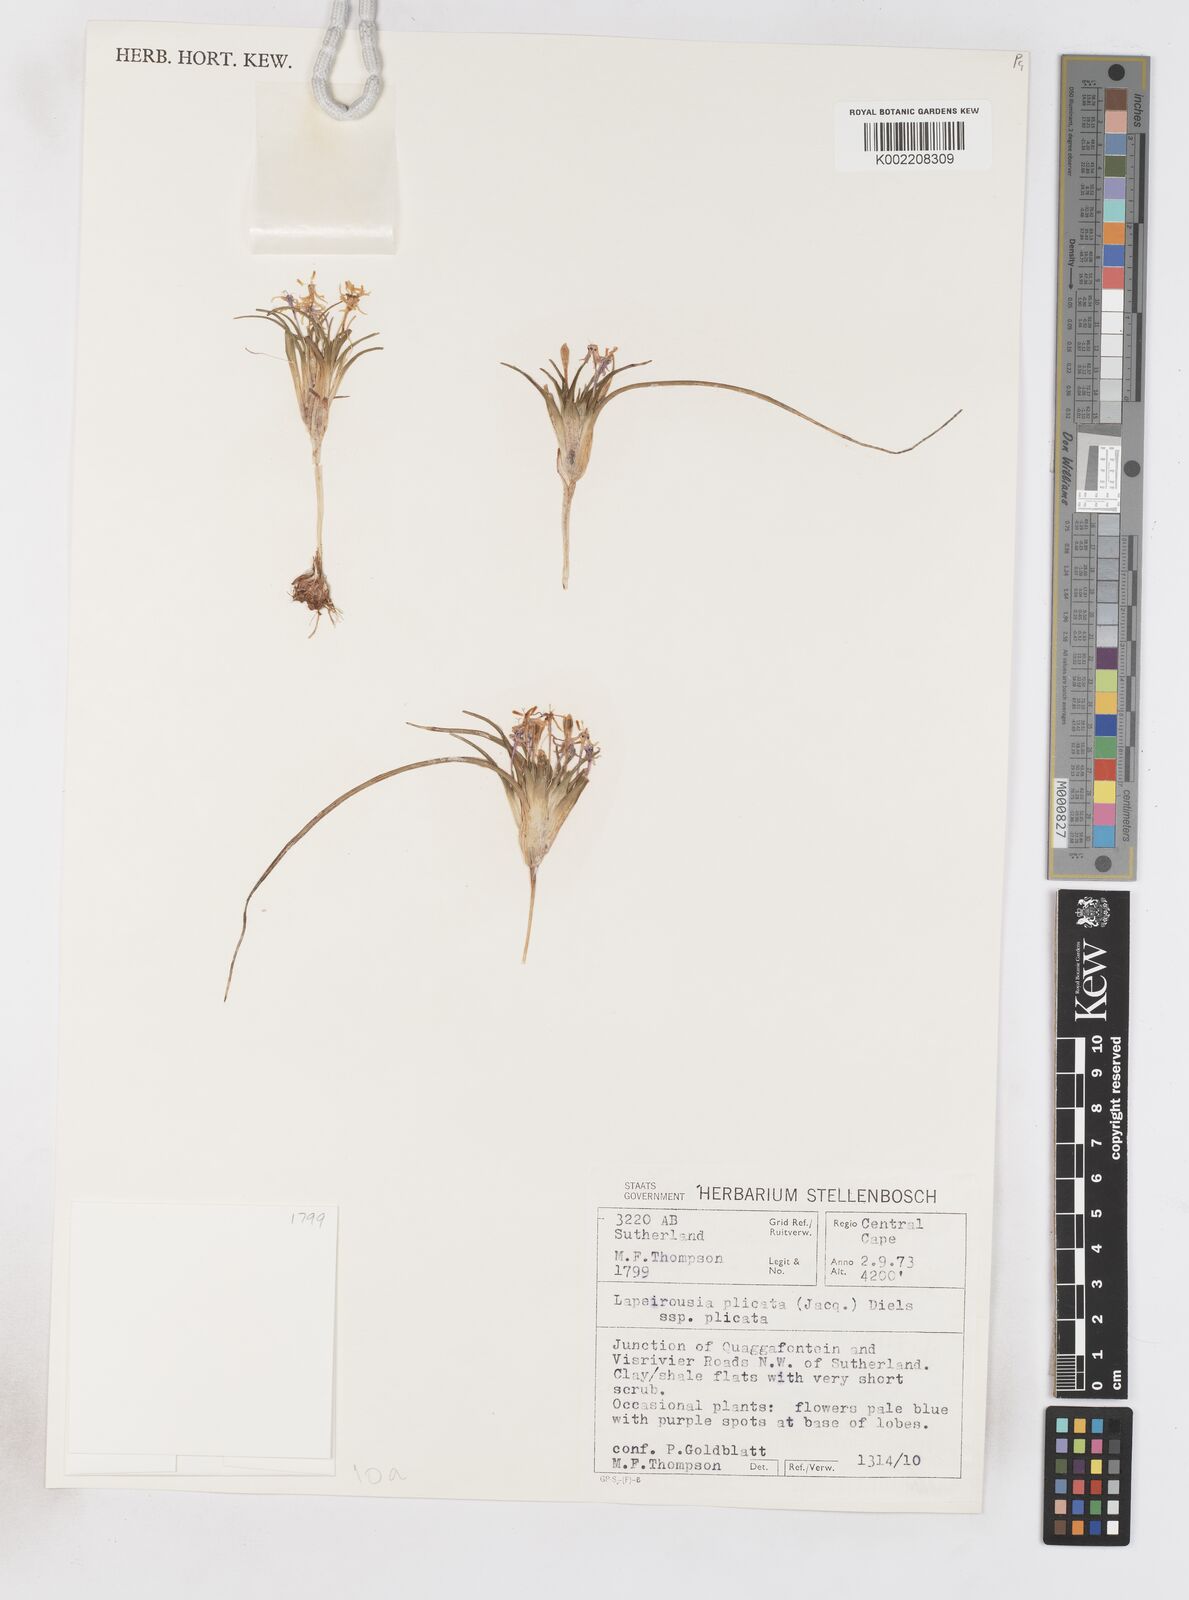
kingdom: Plantae
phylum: Tracheophyta
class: Liliopsida
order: Asparagales
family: Iridaceae
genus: Lapeirousia
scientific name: Lapeirousia plicata
